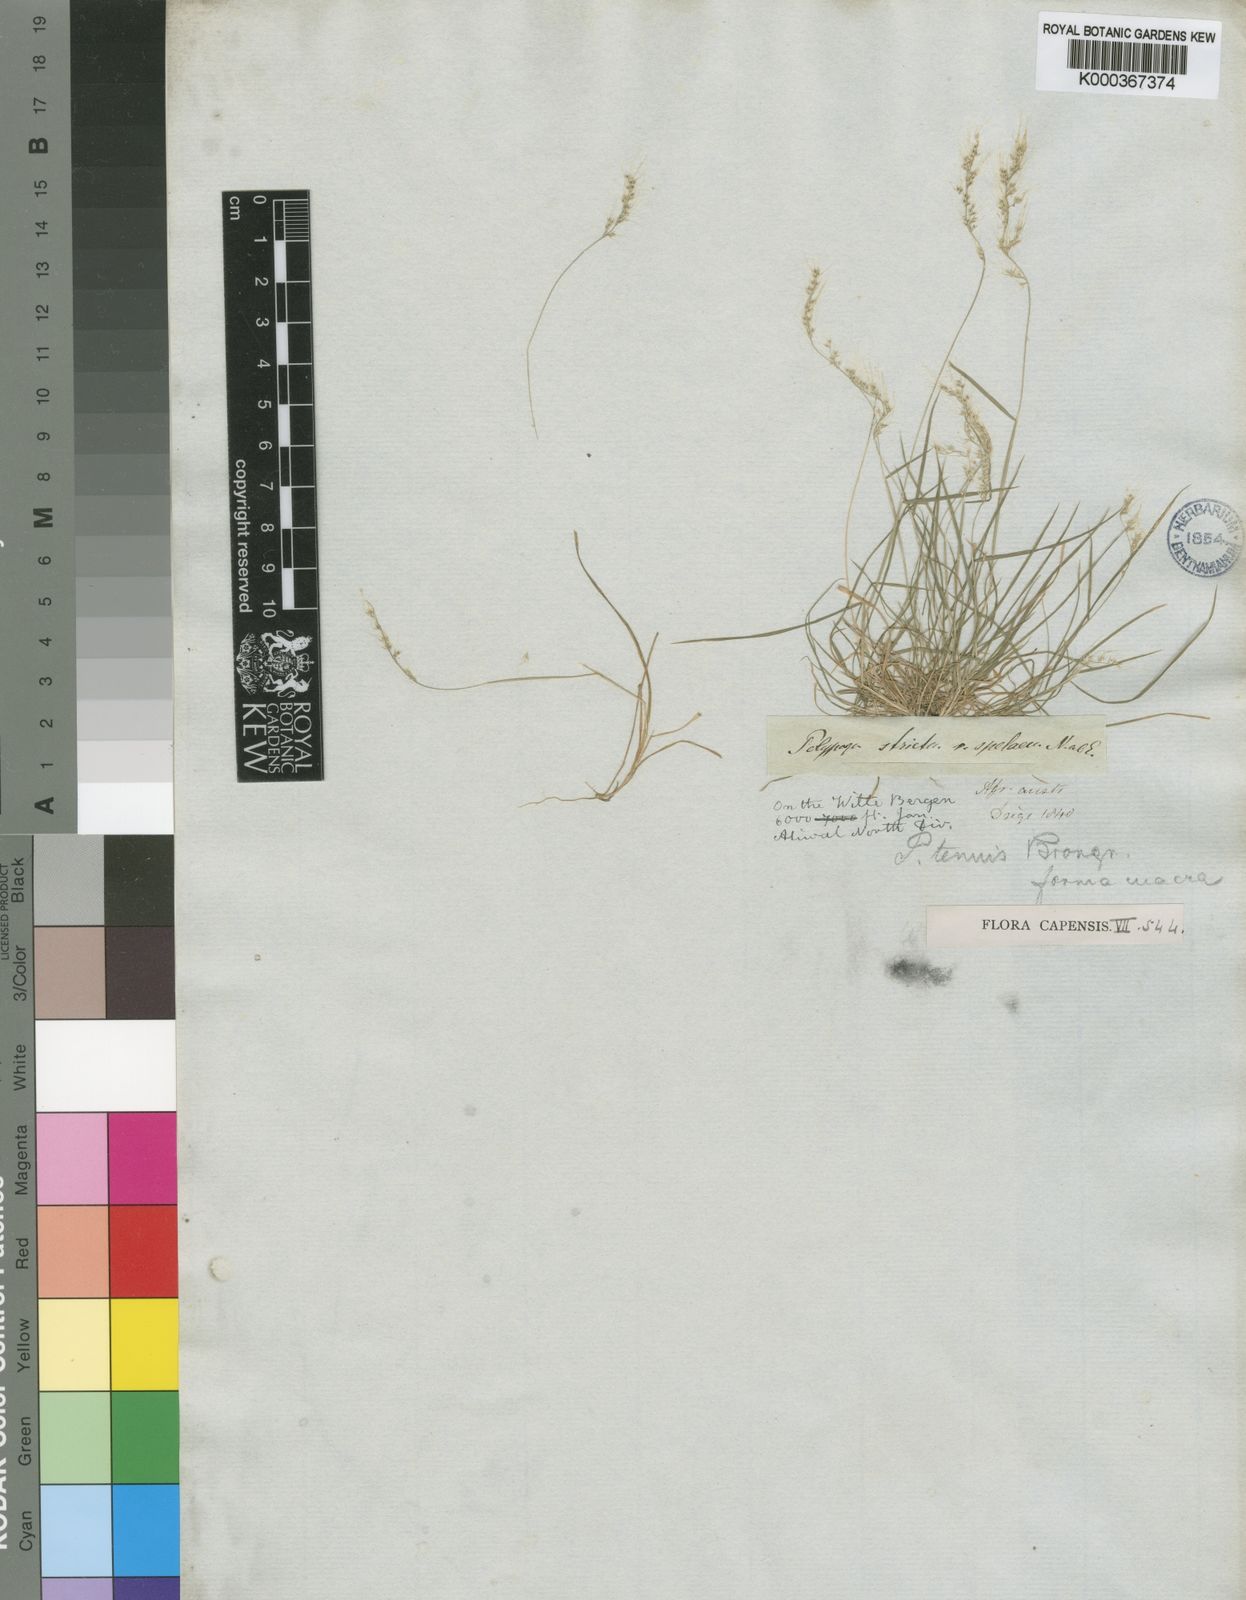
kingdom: Plantae
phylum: Tracheophyta
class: Liliopsida
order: Poales
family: Poaceae
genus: Polypogon
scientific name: Polypogon tenuis
